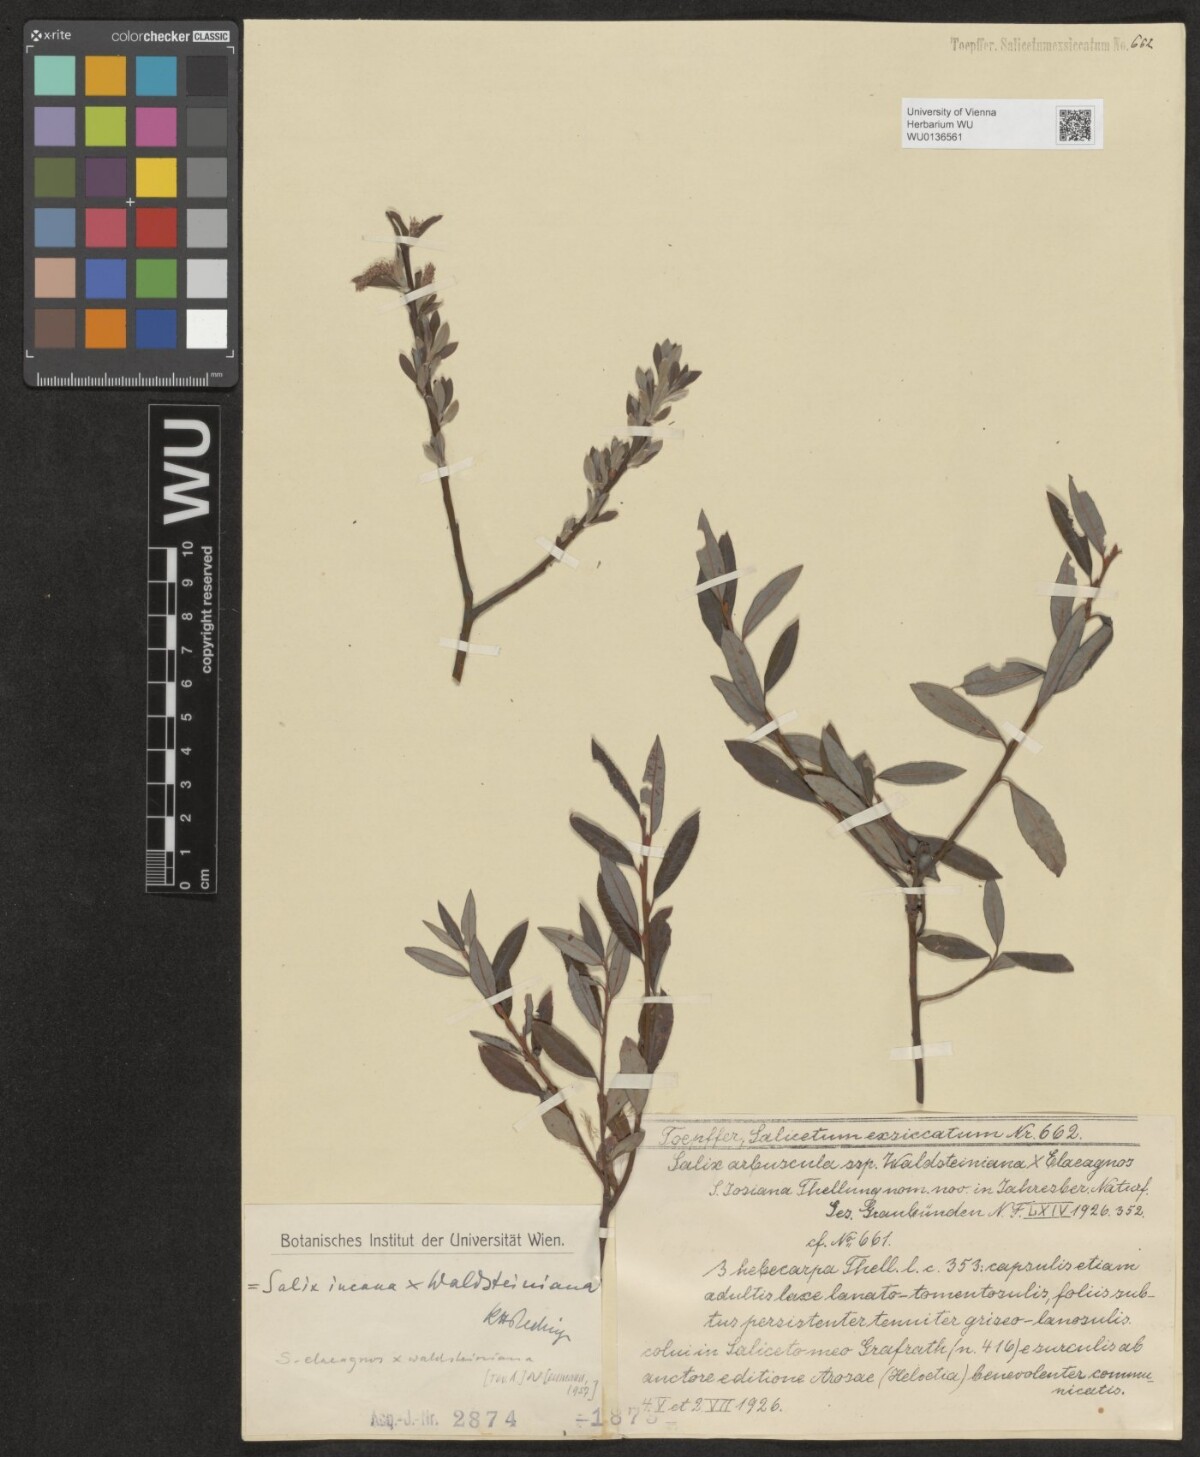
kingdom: Plantae
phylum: Tracheophyta
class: Magnoliopsida
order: Malpighiales
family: Salicaceae
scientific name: Salicaceae
